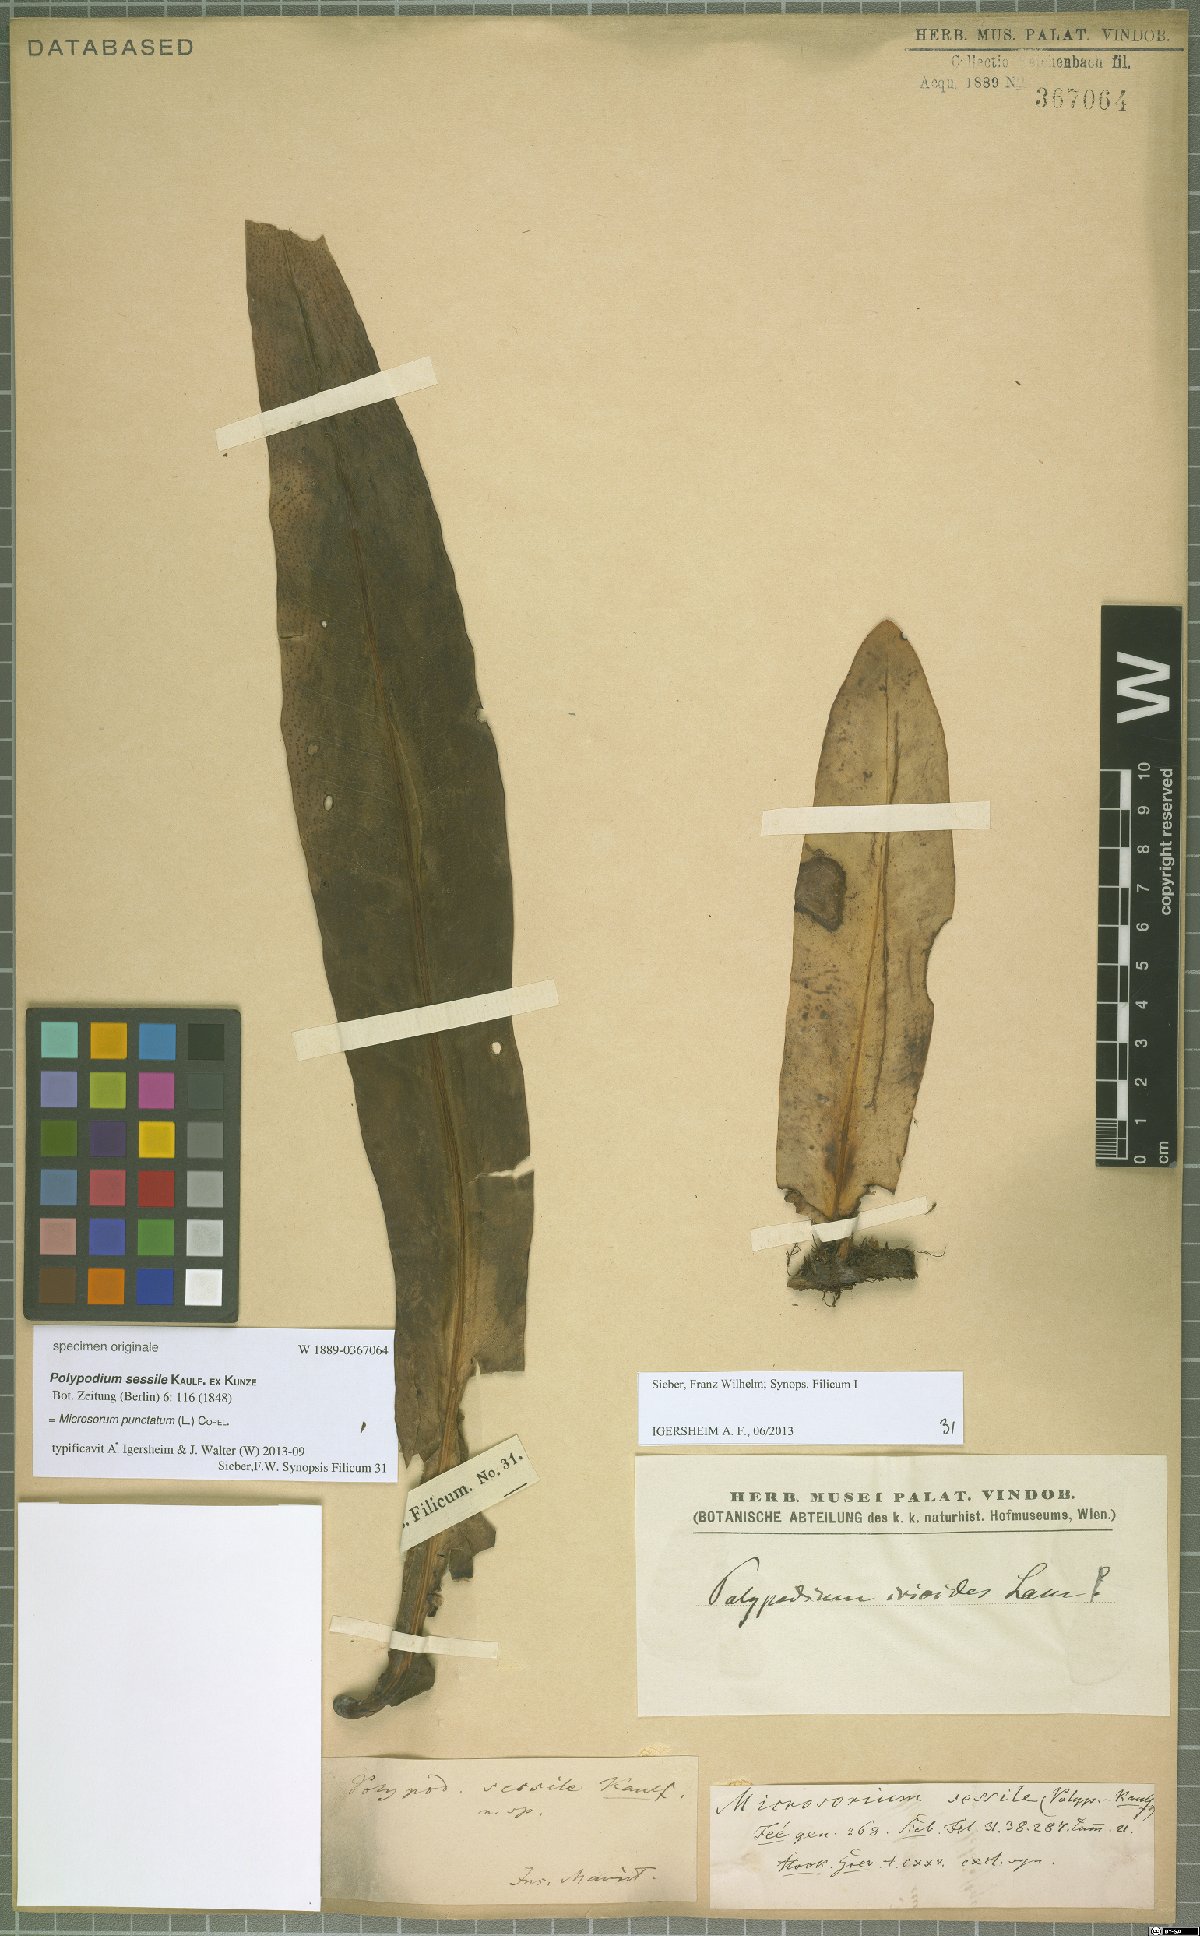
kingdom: Plantae
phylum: Tracheophyta
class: Polypodiopsida
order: Polypodiales
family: Polypodiaceae
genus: Microsorum
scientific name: Microsorum punctatum
